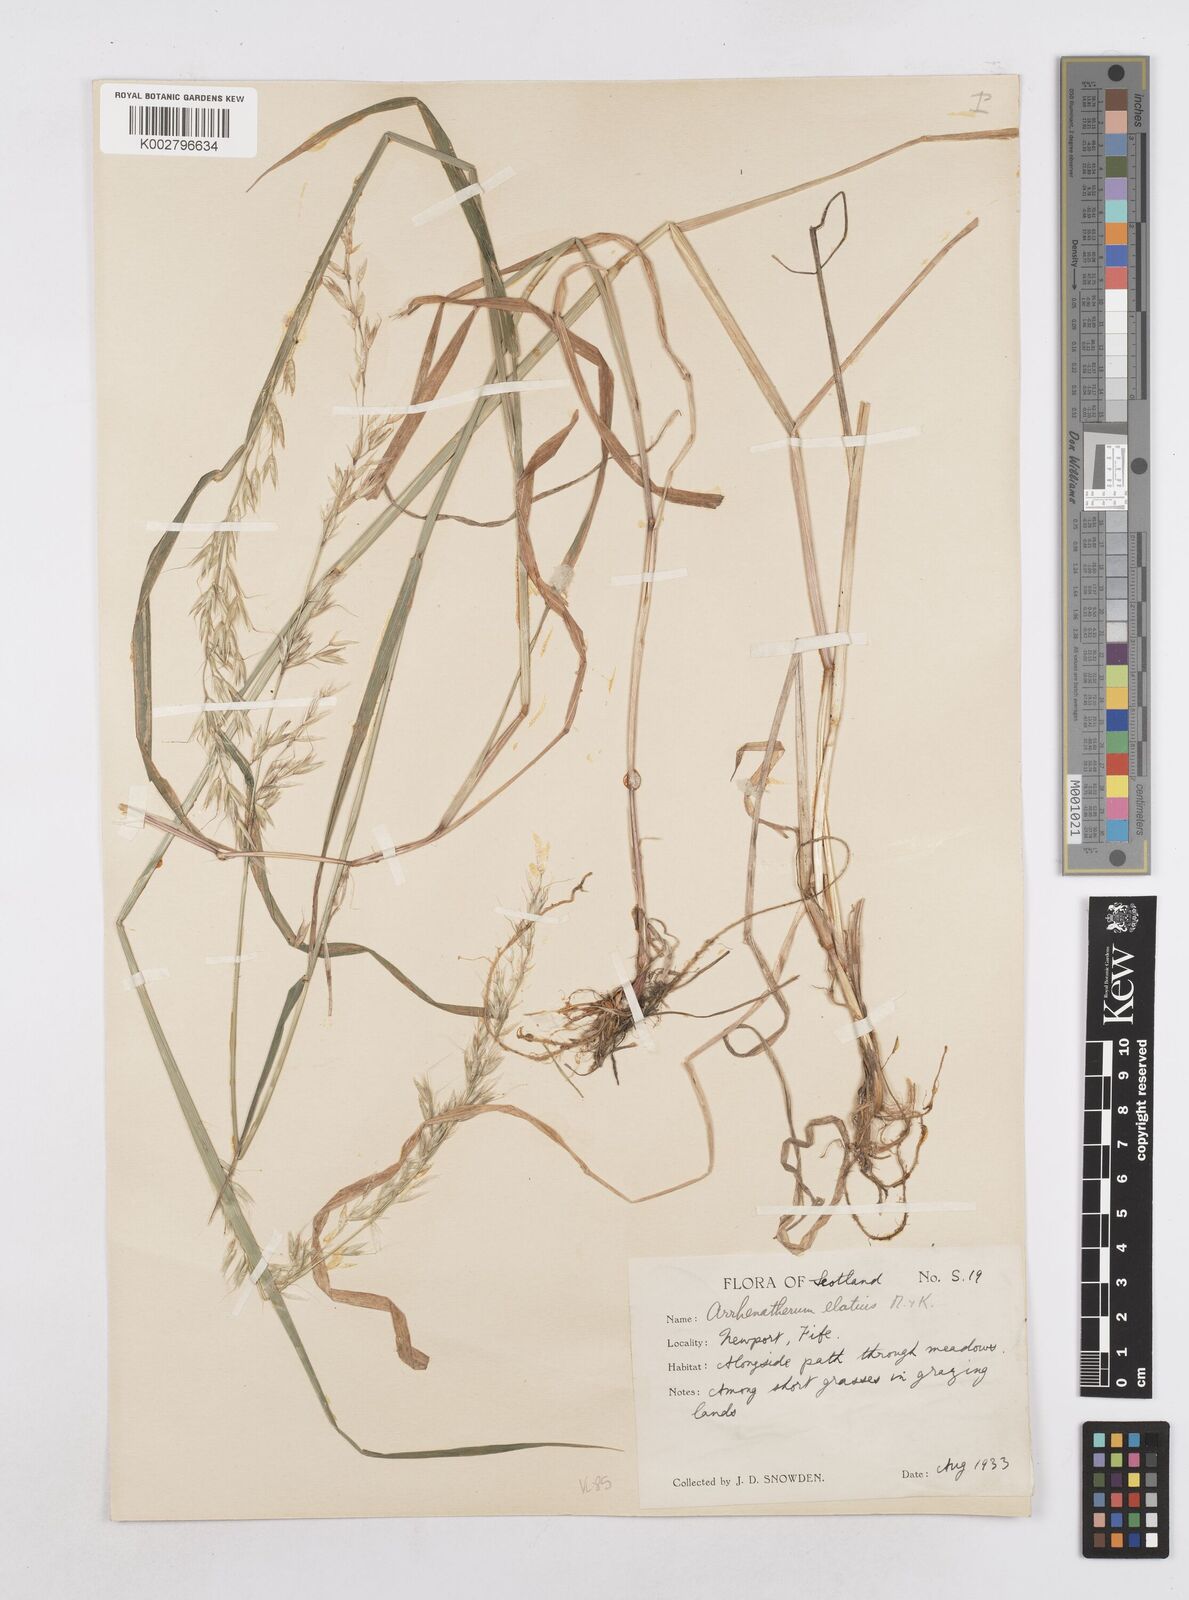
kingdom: Plantae
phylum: Tracheophyta
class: Liliopsida
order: Poales
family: Poaceae
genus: Arrhenatherum
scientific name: Arrhenatherum elatius
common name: Tall oatgrass
